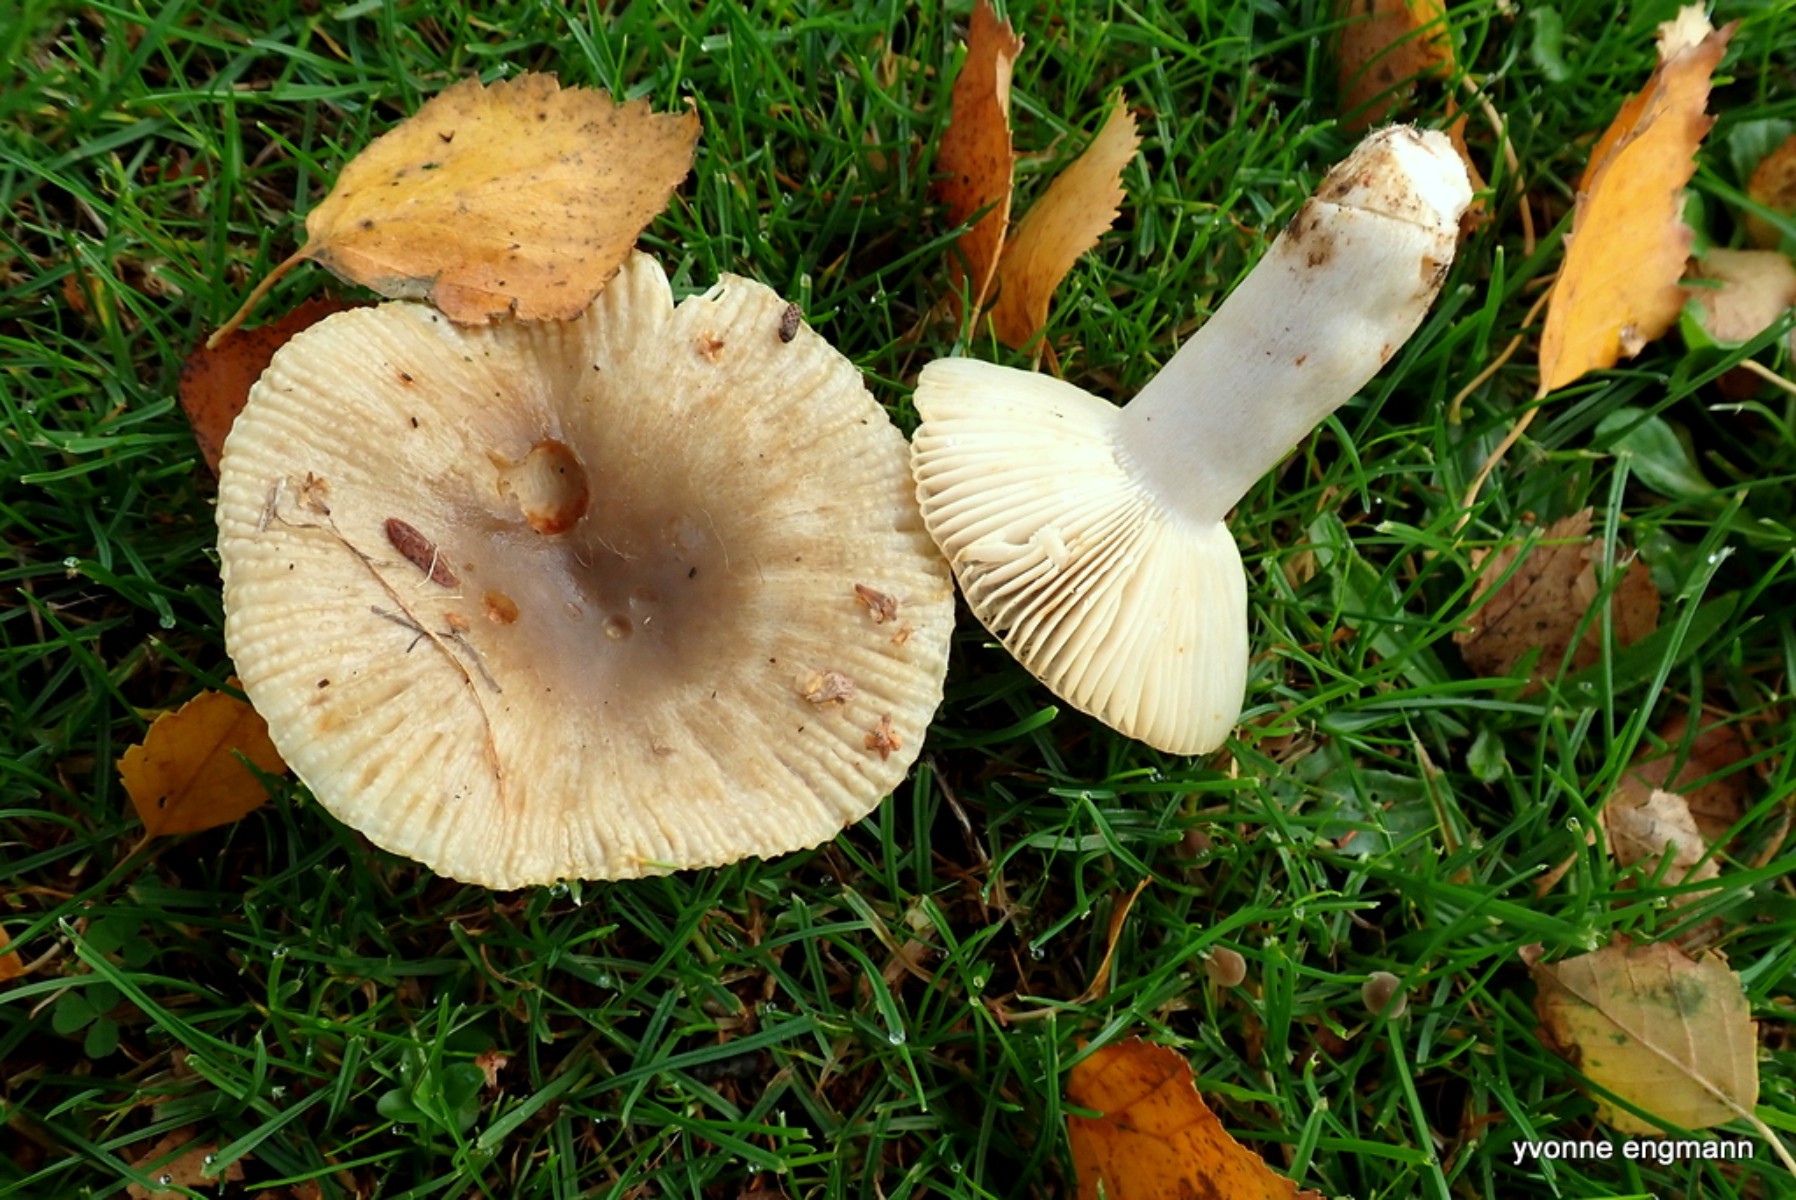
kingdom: Fungi
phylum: Basidiomycota
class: Agaricomycetes
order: Russulales
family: Russulaceae
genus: Russula
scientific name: Russula recondita
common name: mild kam-skørhat
